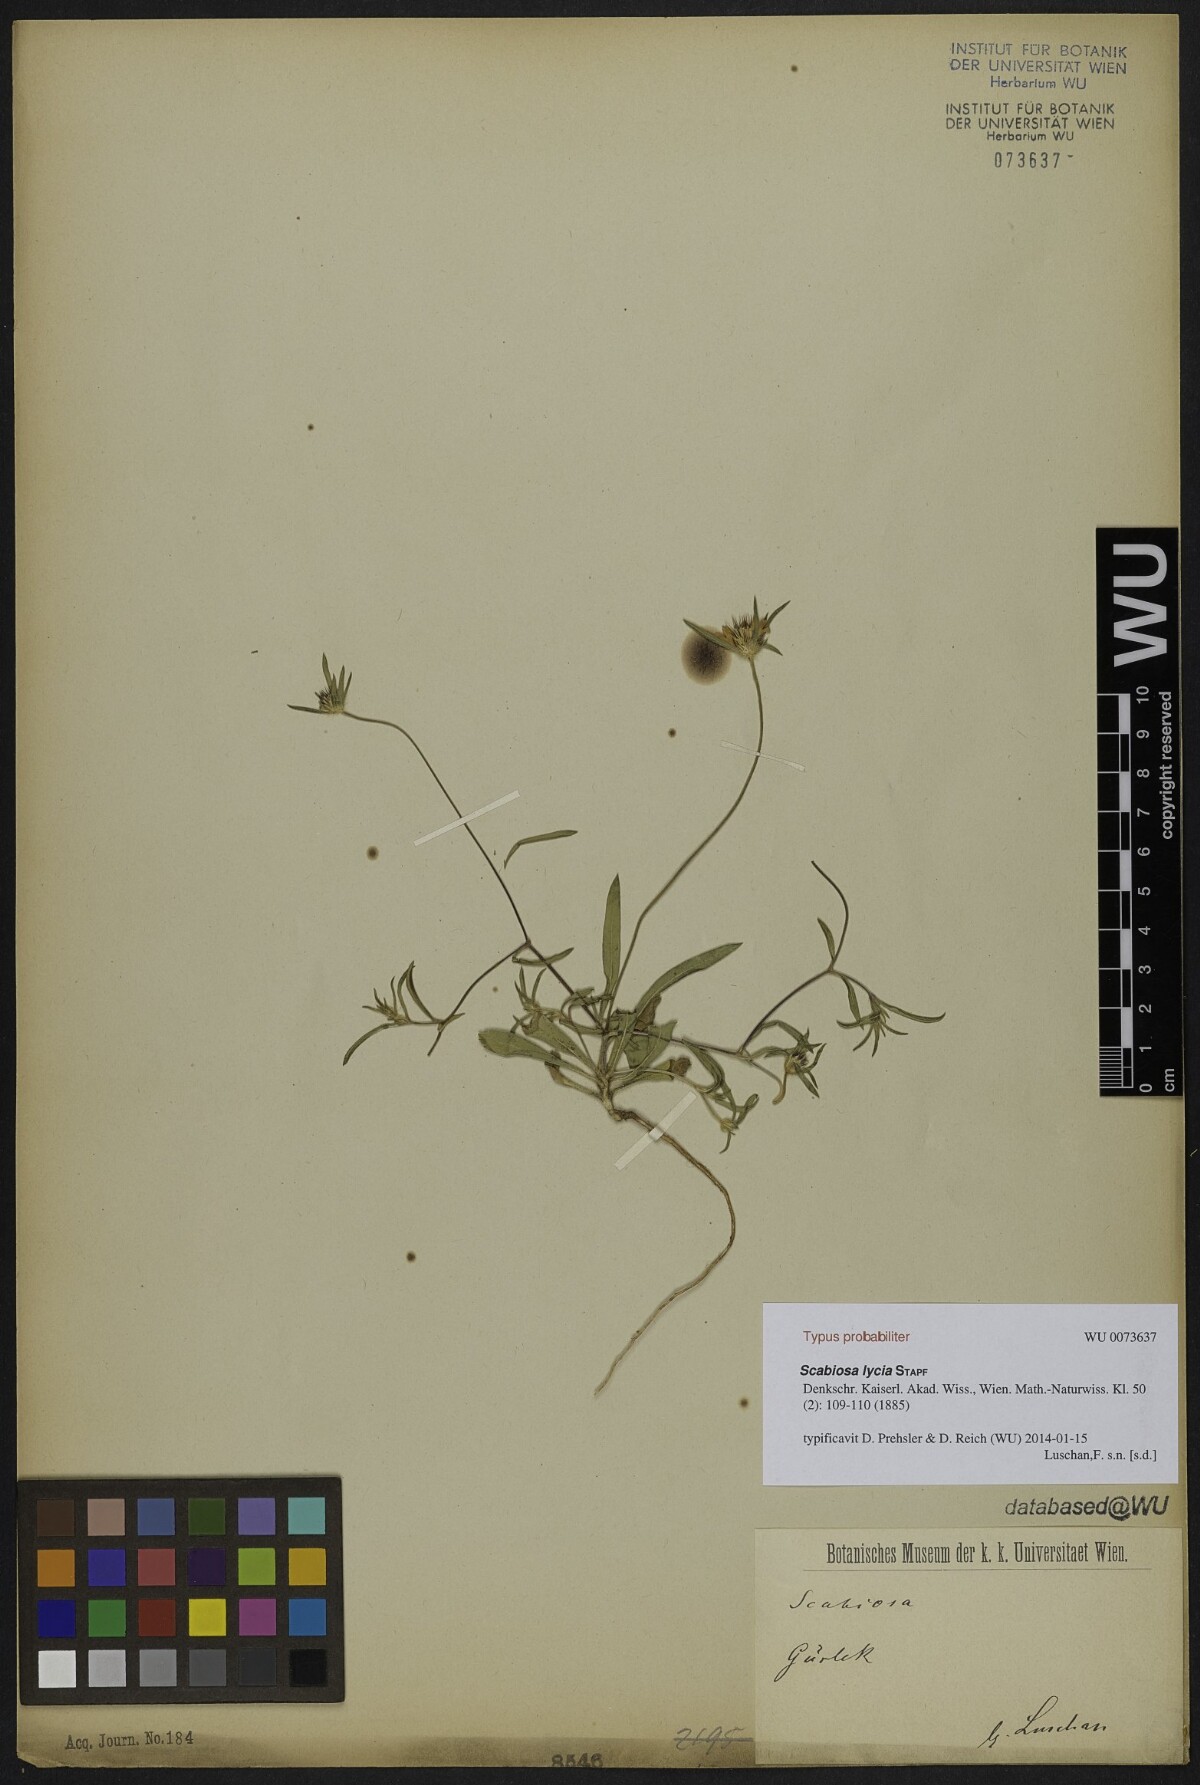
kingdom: Plantae
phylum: Tracheophyta
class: Magnoliopsida
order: Dipsacales
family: Caprifoliaceae
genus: Lomelosia
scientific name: Lomelosia lycia
